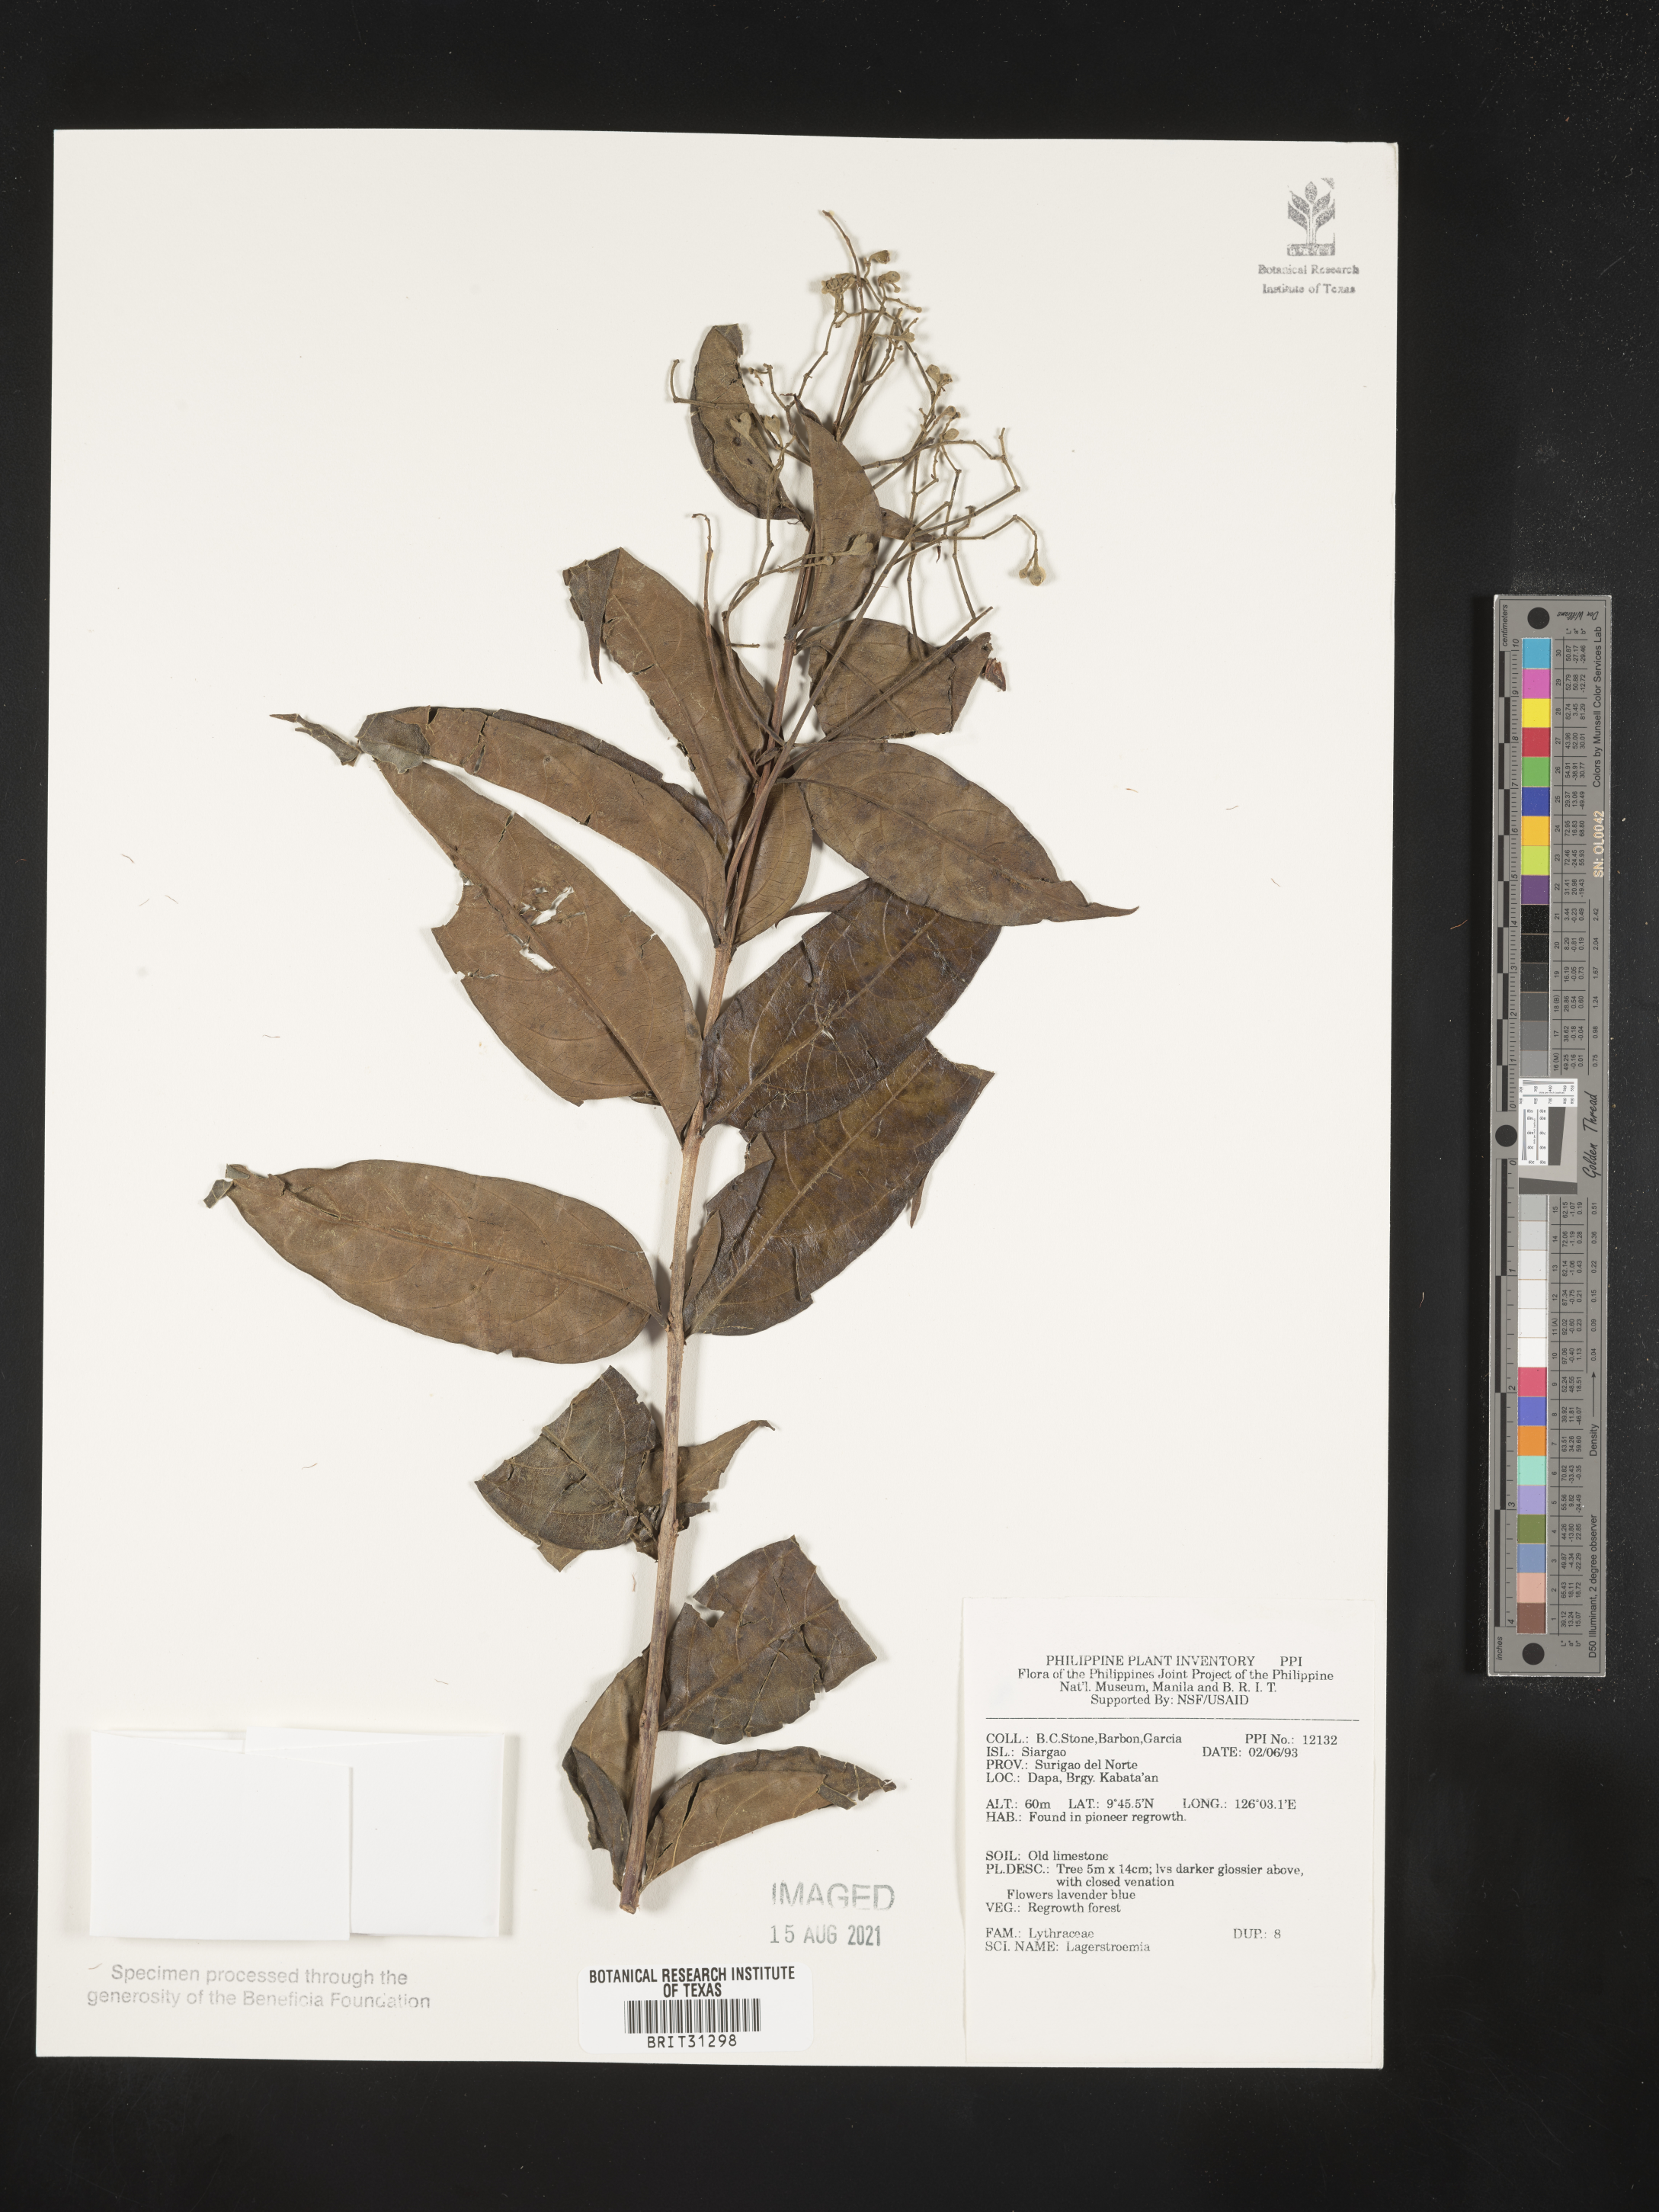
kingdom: Plantae
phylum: Tracheophyta
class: Magnoliopsida
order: Myrtales
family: Lythraceae
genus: Lagerstroemia
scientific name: Lagerstroemia
